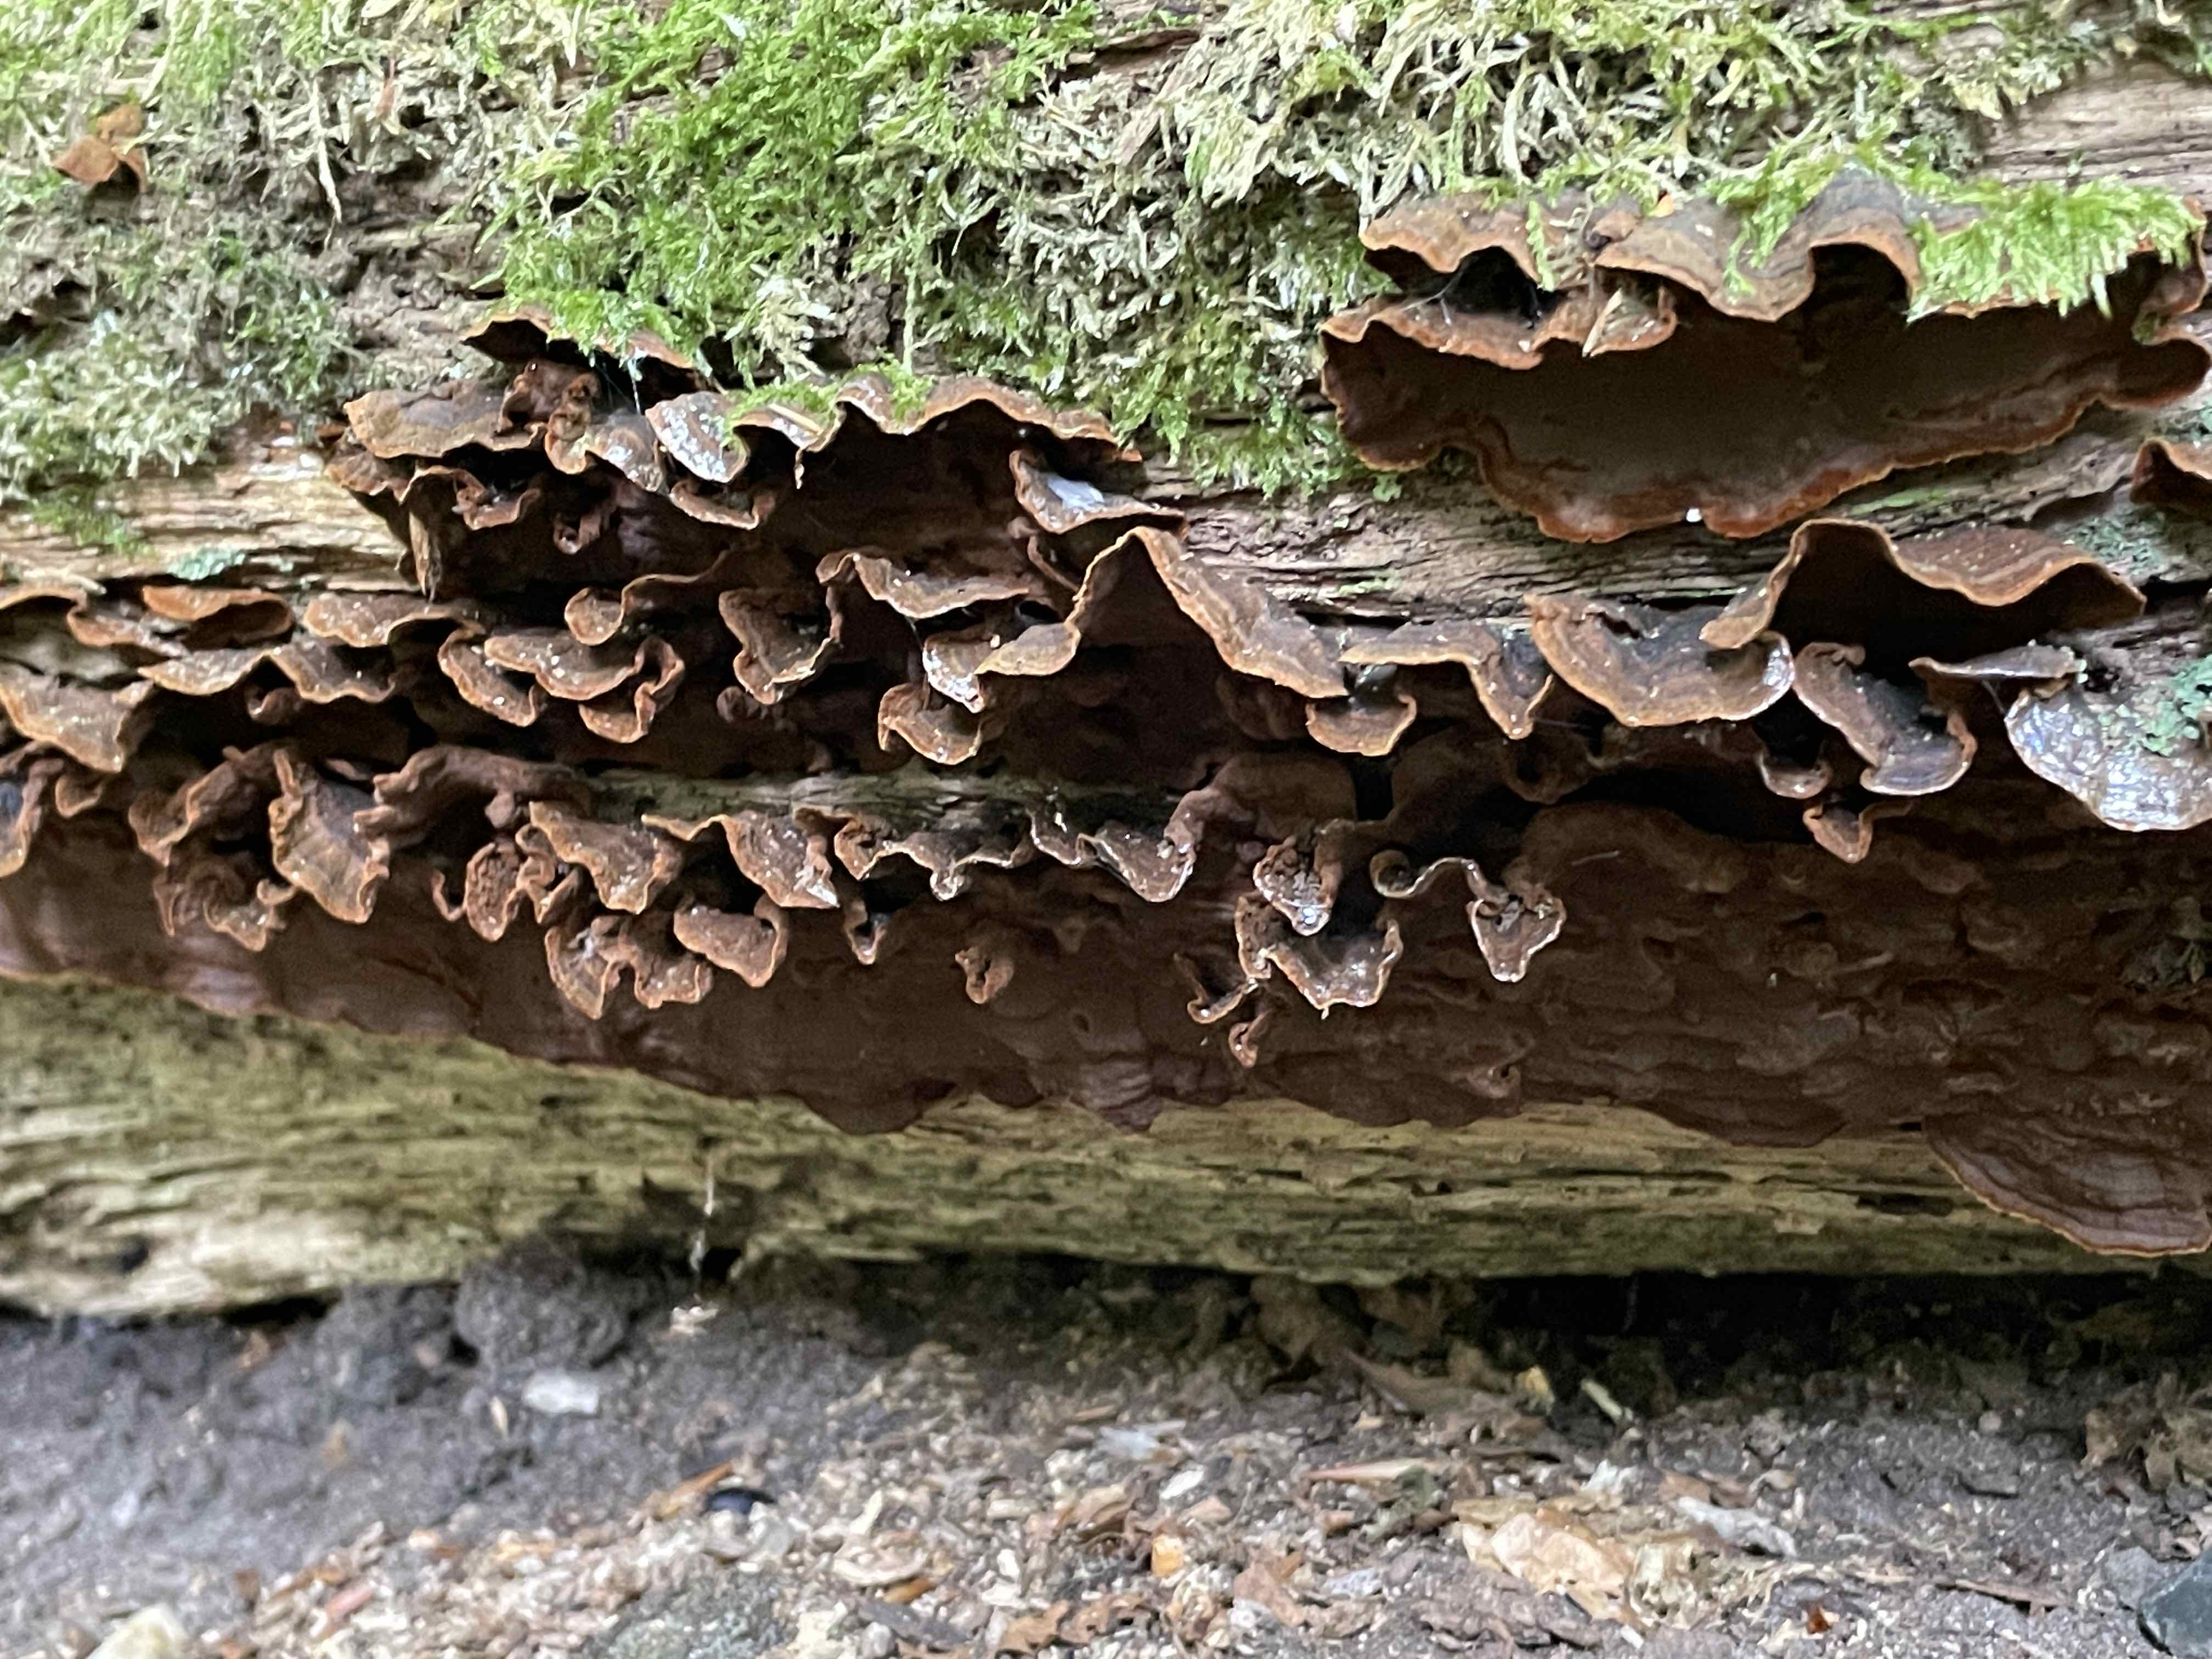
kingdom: Fungi
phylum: Basidiomycota
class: Agaricomycetes
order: Hymenochaetales
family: Hymenochaetaceae
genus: Hymenochaete
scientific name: Hymenochaete rubiginosa
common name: stiv ruslædersvamp
